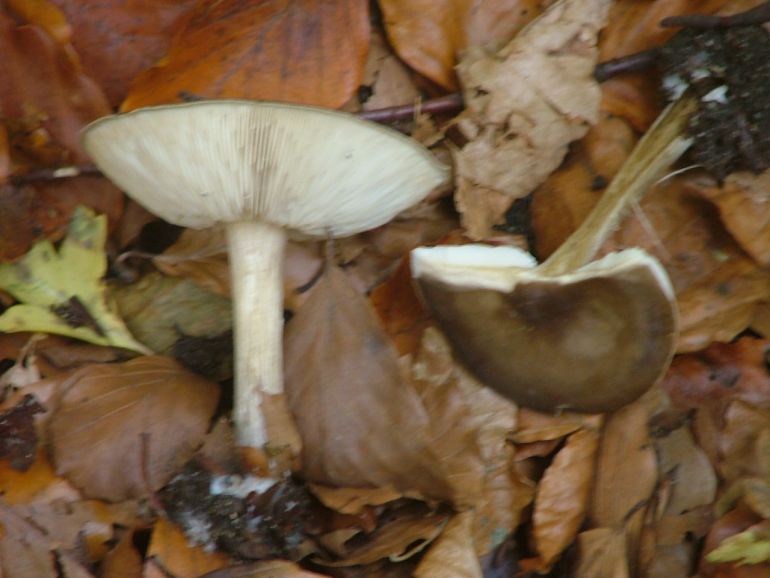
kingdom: Fungi
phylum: Basidiomycota
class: Agaricomycetes
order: Agaricales
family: Tricholomataceae
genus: Melanoleuca
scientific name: Melanoleuca polioleuca
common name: almindelig munkehat
